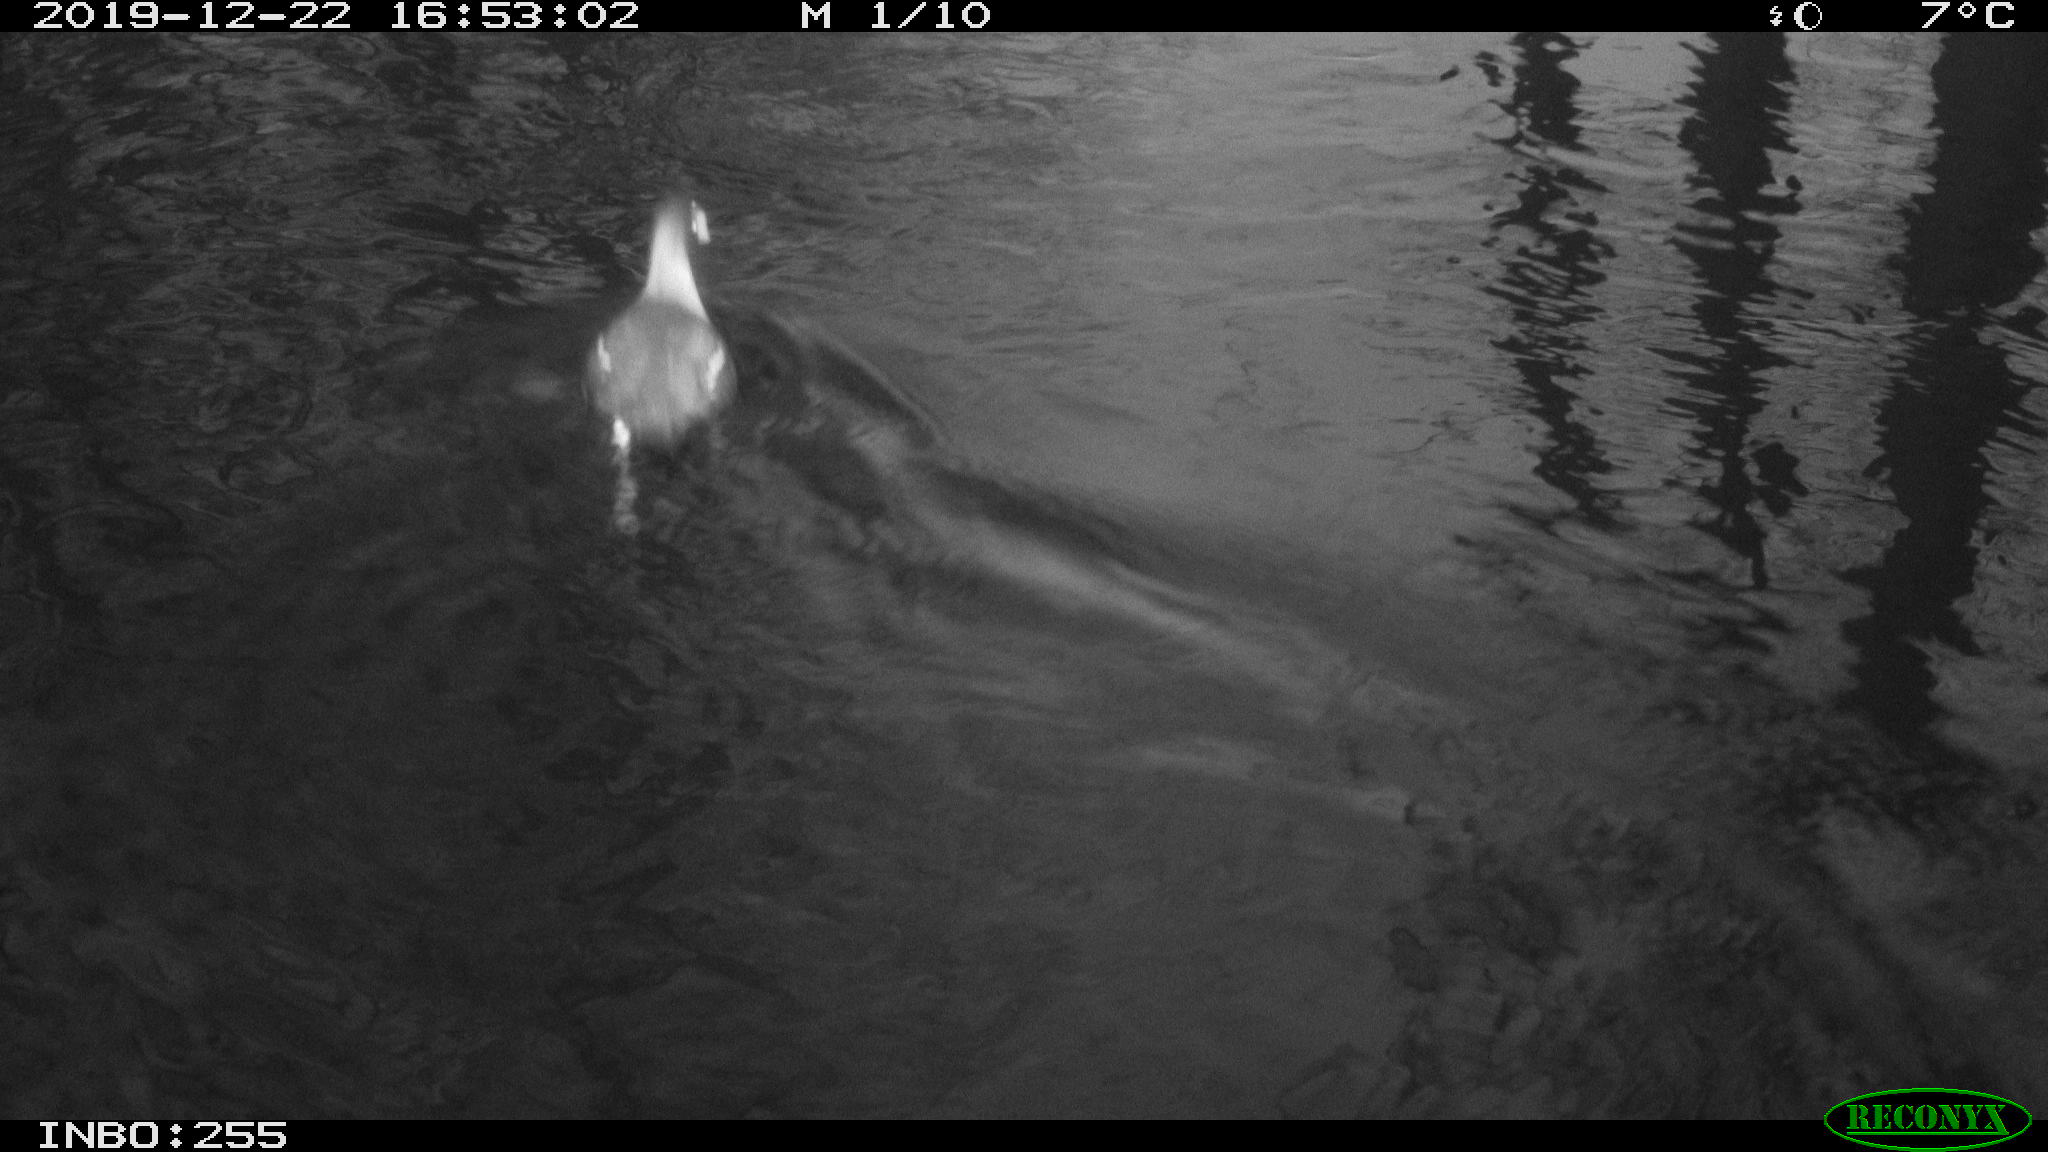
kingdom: Animalia
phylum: Chordata
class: Aves
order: Gruiformes
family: Rallidae
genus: Gallinula
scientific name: Gallinula chloropus
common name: Common moorhen
